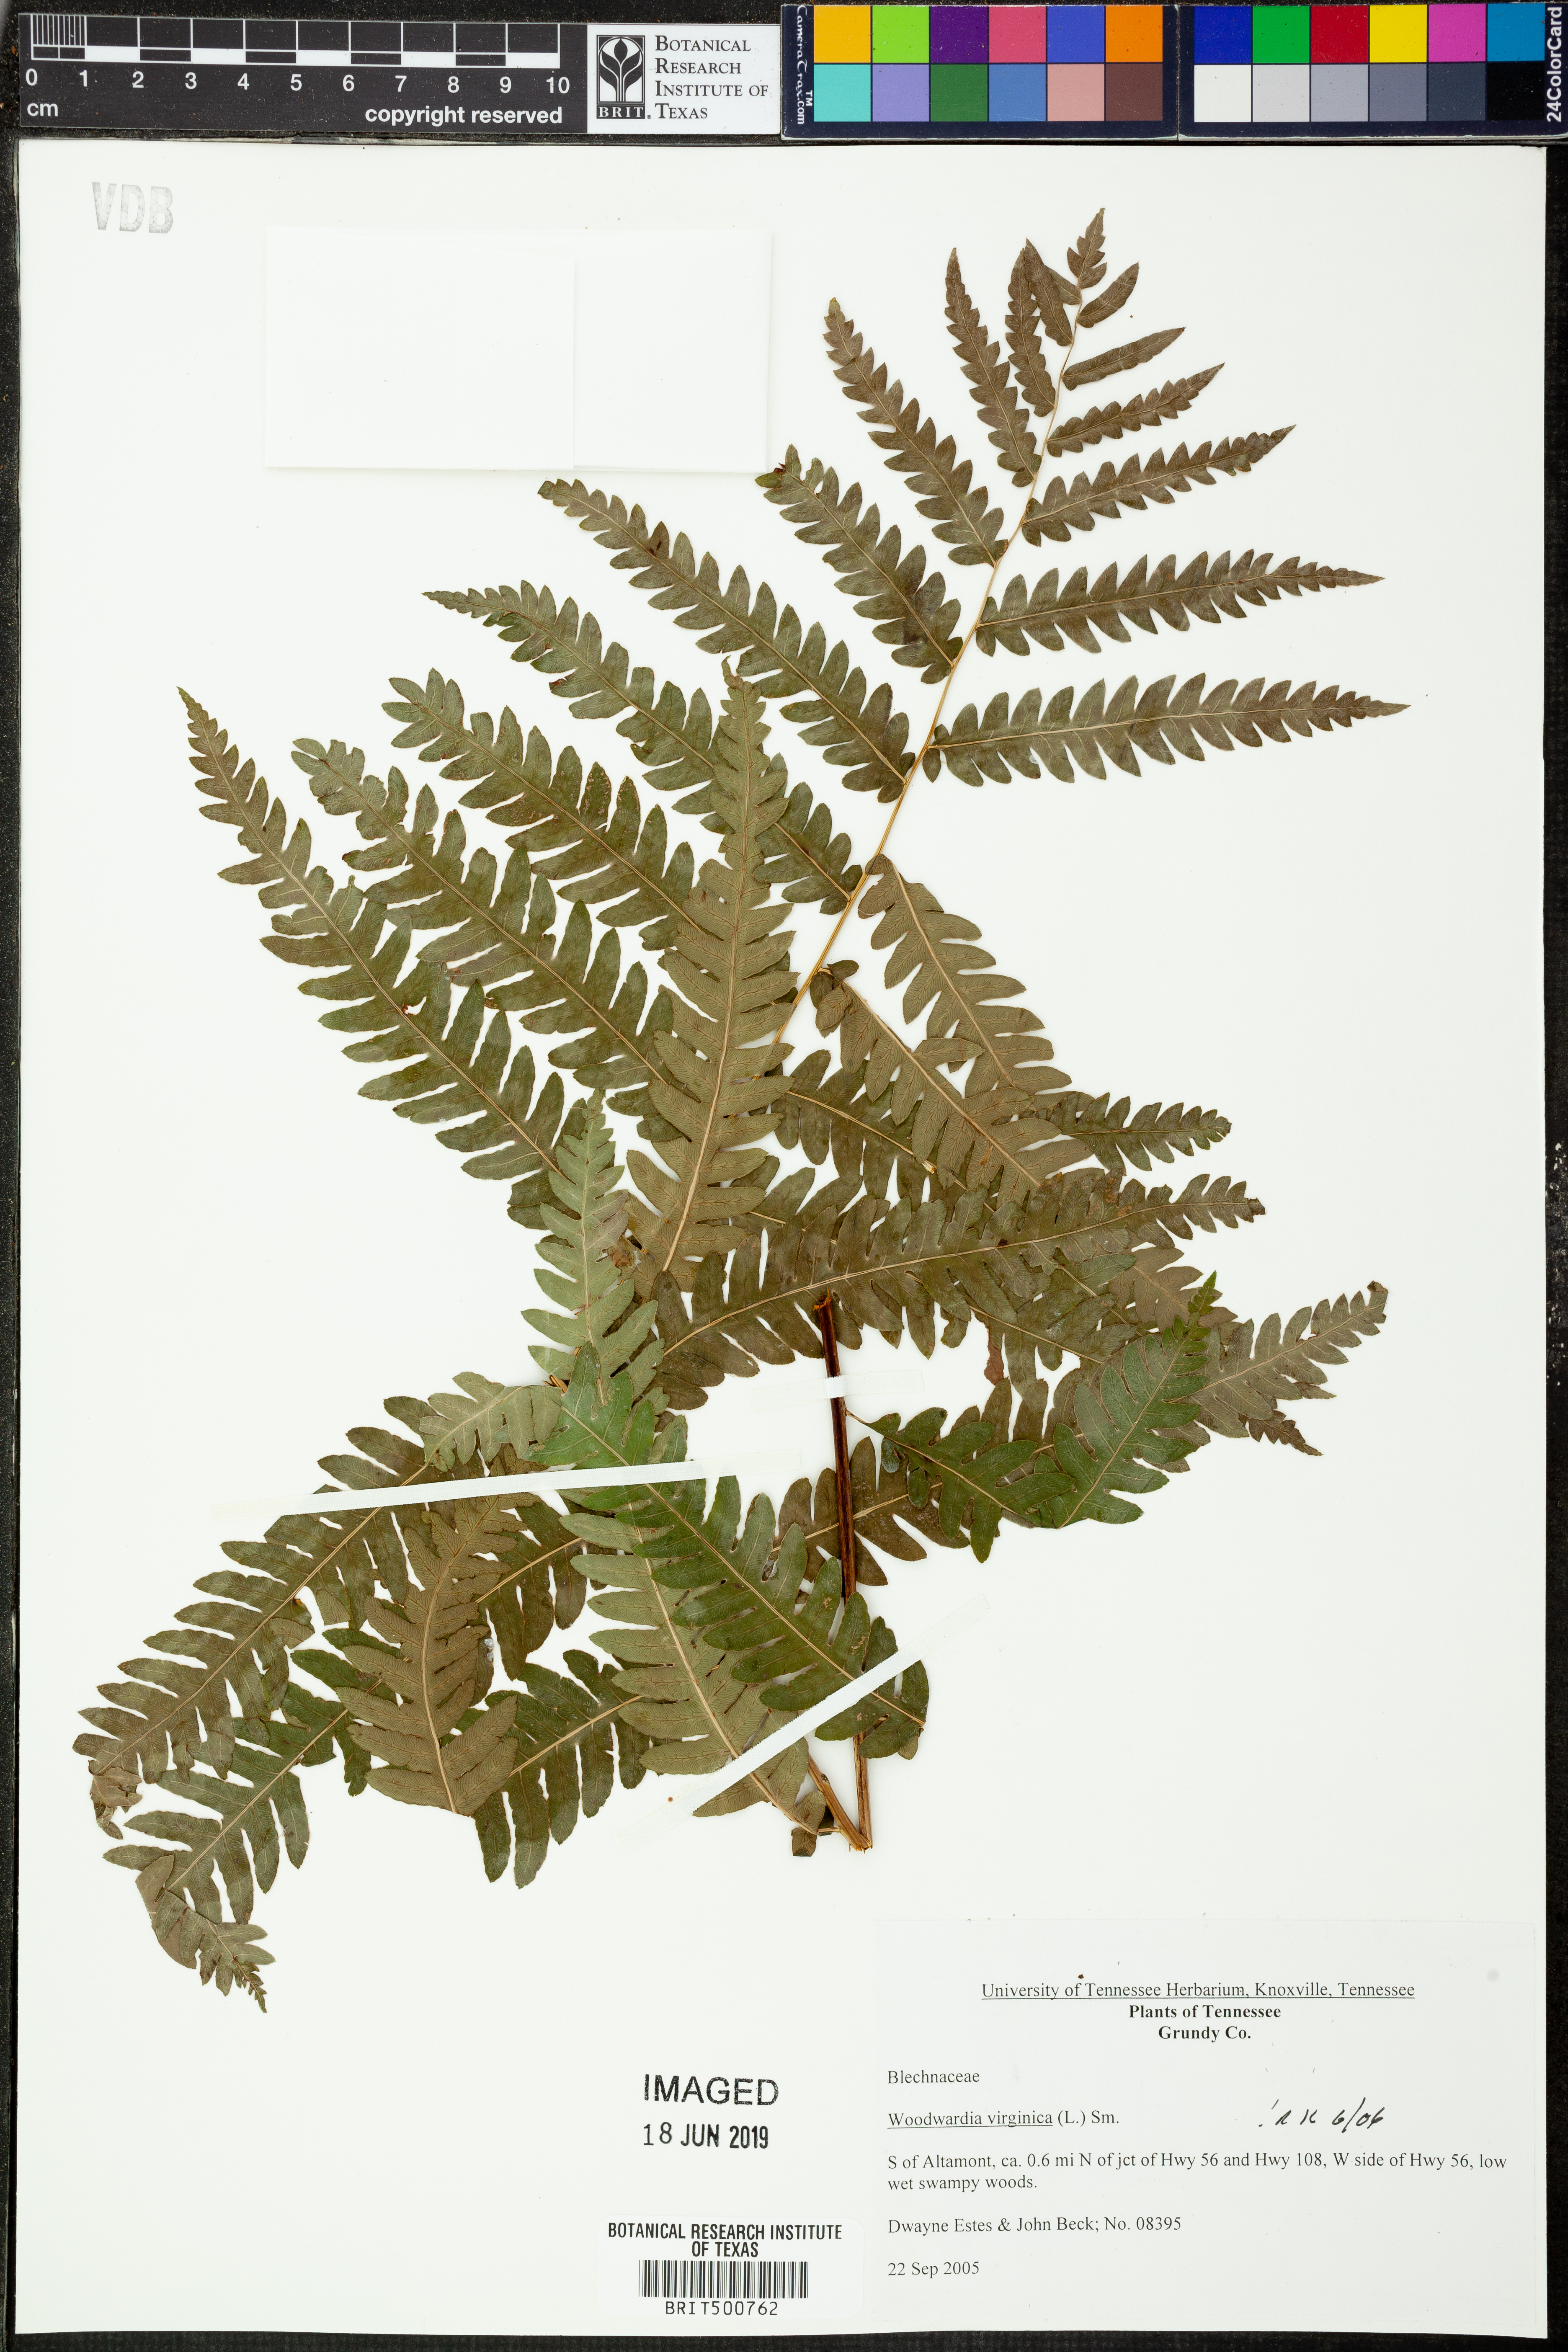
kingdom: Plantae
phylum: Tracheophyta
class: Polypodiopsida
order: Polypodiales
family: Blechnaceae
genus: Anchistea
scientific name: Anchistea virginica
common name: Virginia chain fern
